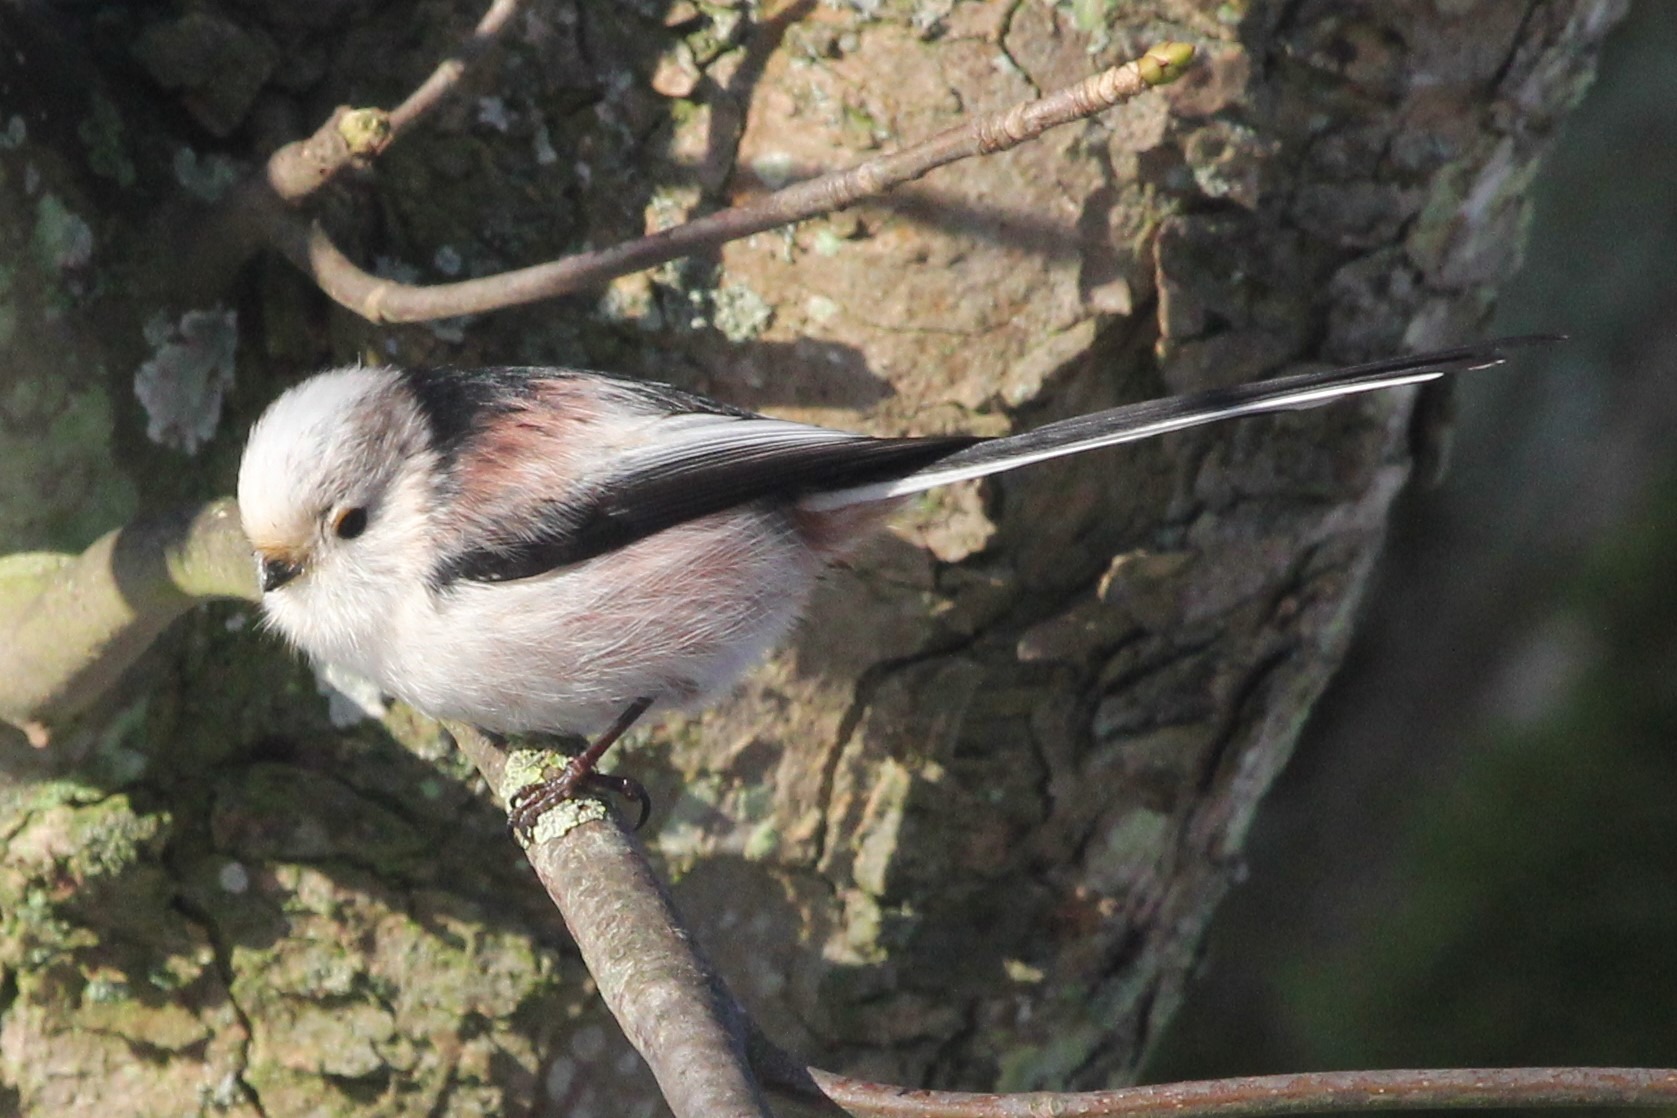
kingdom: Animalia
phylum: Chordata
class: Aves
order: Passeriformes
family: Aegithalidae
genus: Aegithalos
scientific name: Aegithalos caudatus
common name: Halemejse
